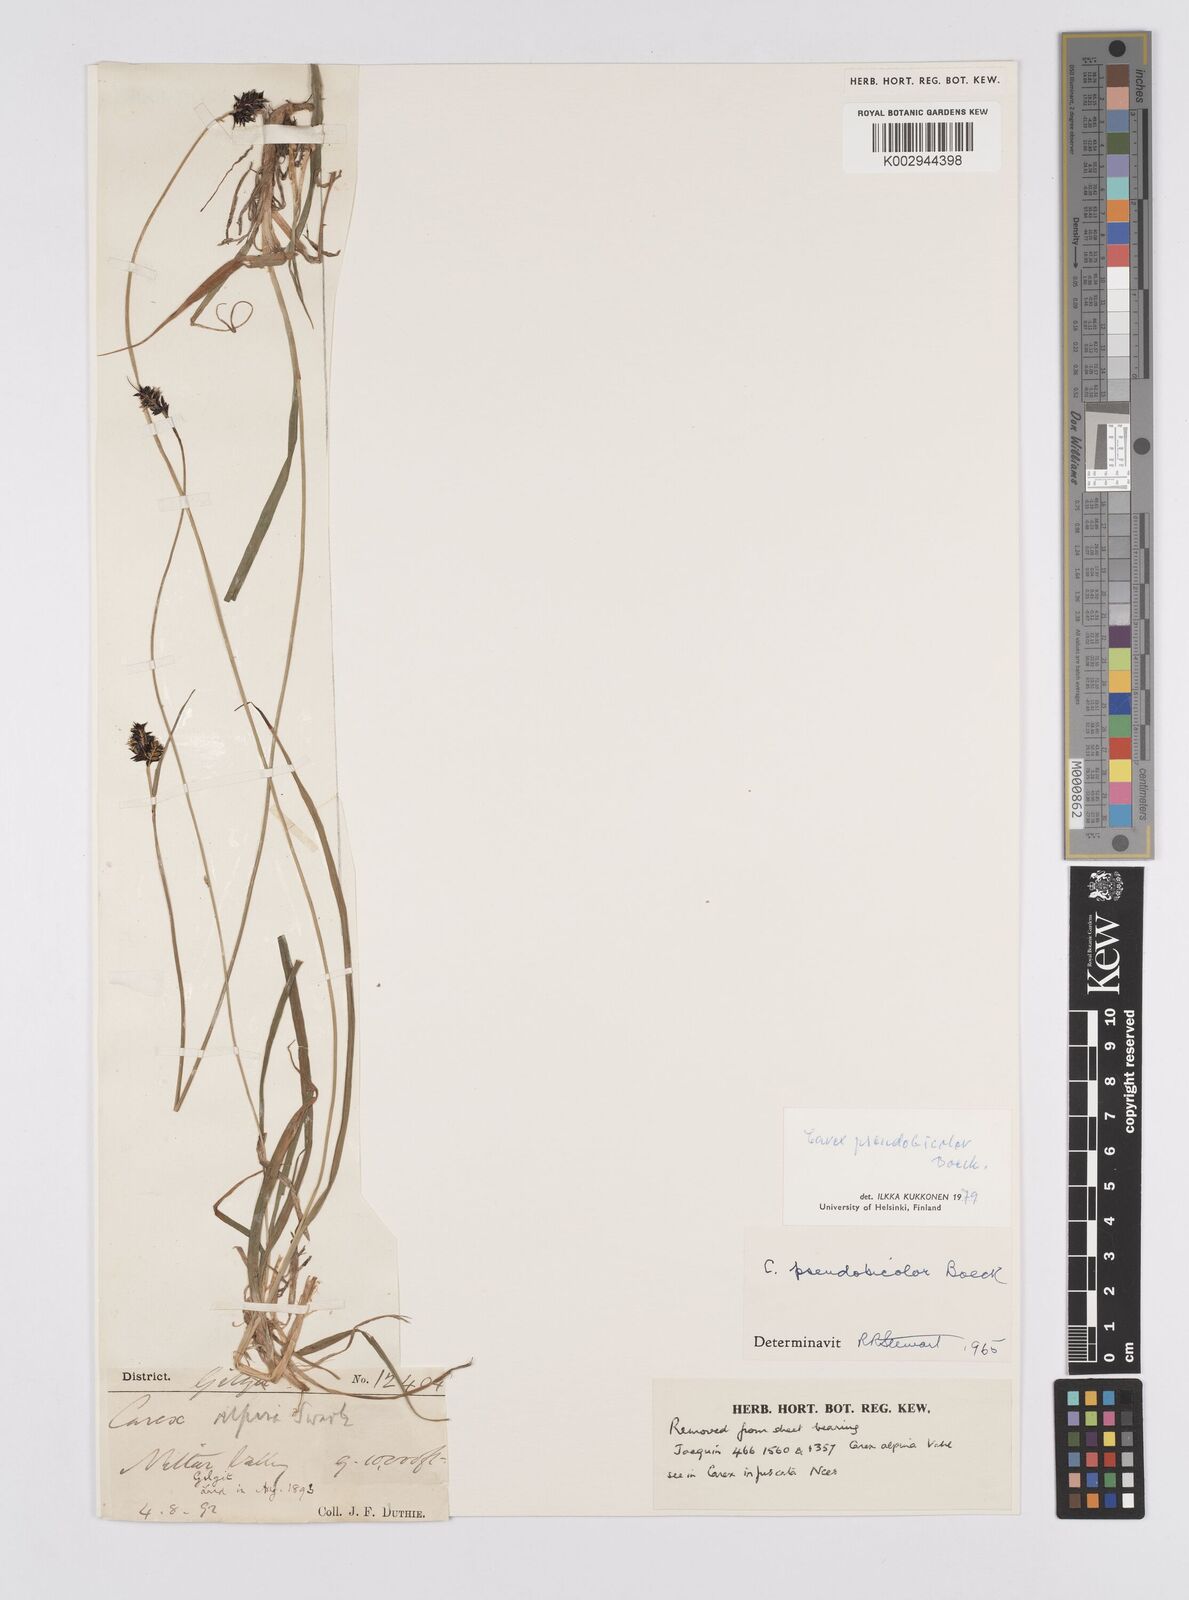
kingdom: Plantae
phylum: Tracheophyta
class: Liliopsida
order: Poales
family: Cyperaceae
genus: Carex
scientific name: Carex norvegica
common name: Close-headed alpine-sedge
